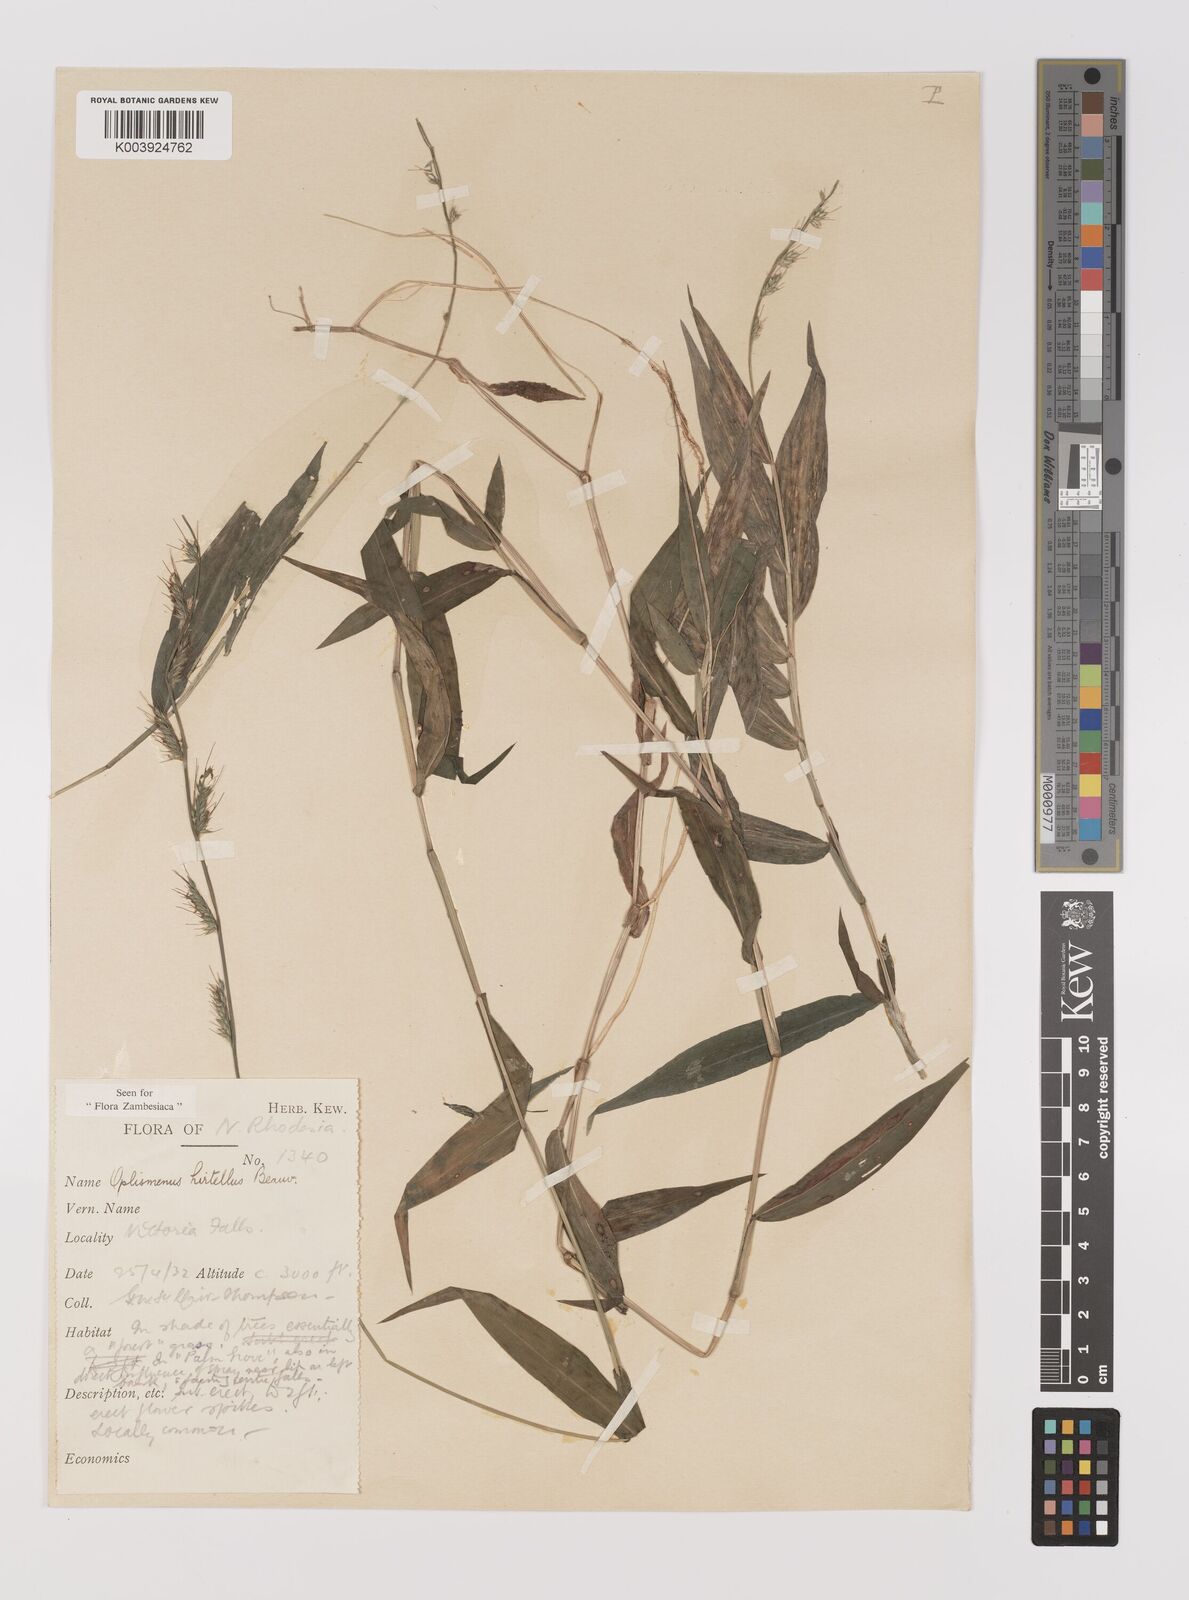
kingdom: Plantae
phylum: Tracheophyta
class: Liliopsida
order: Poales
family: Poaceae
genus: Oplismenus
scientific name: Oplismenus hirtellus
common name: Basketgrass
